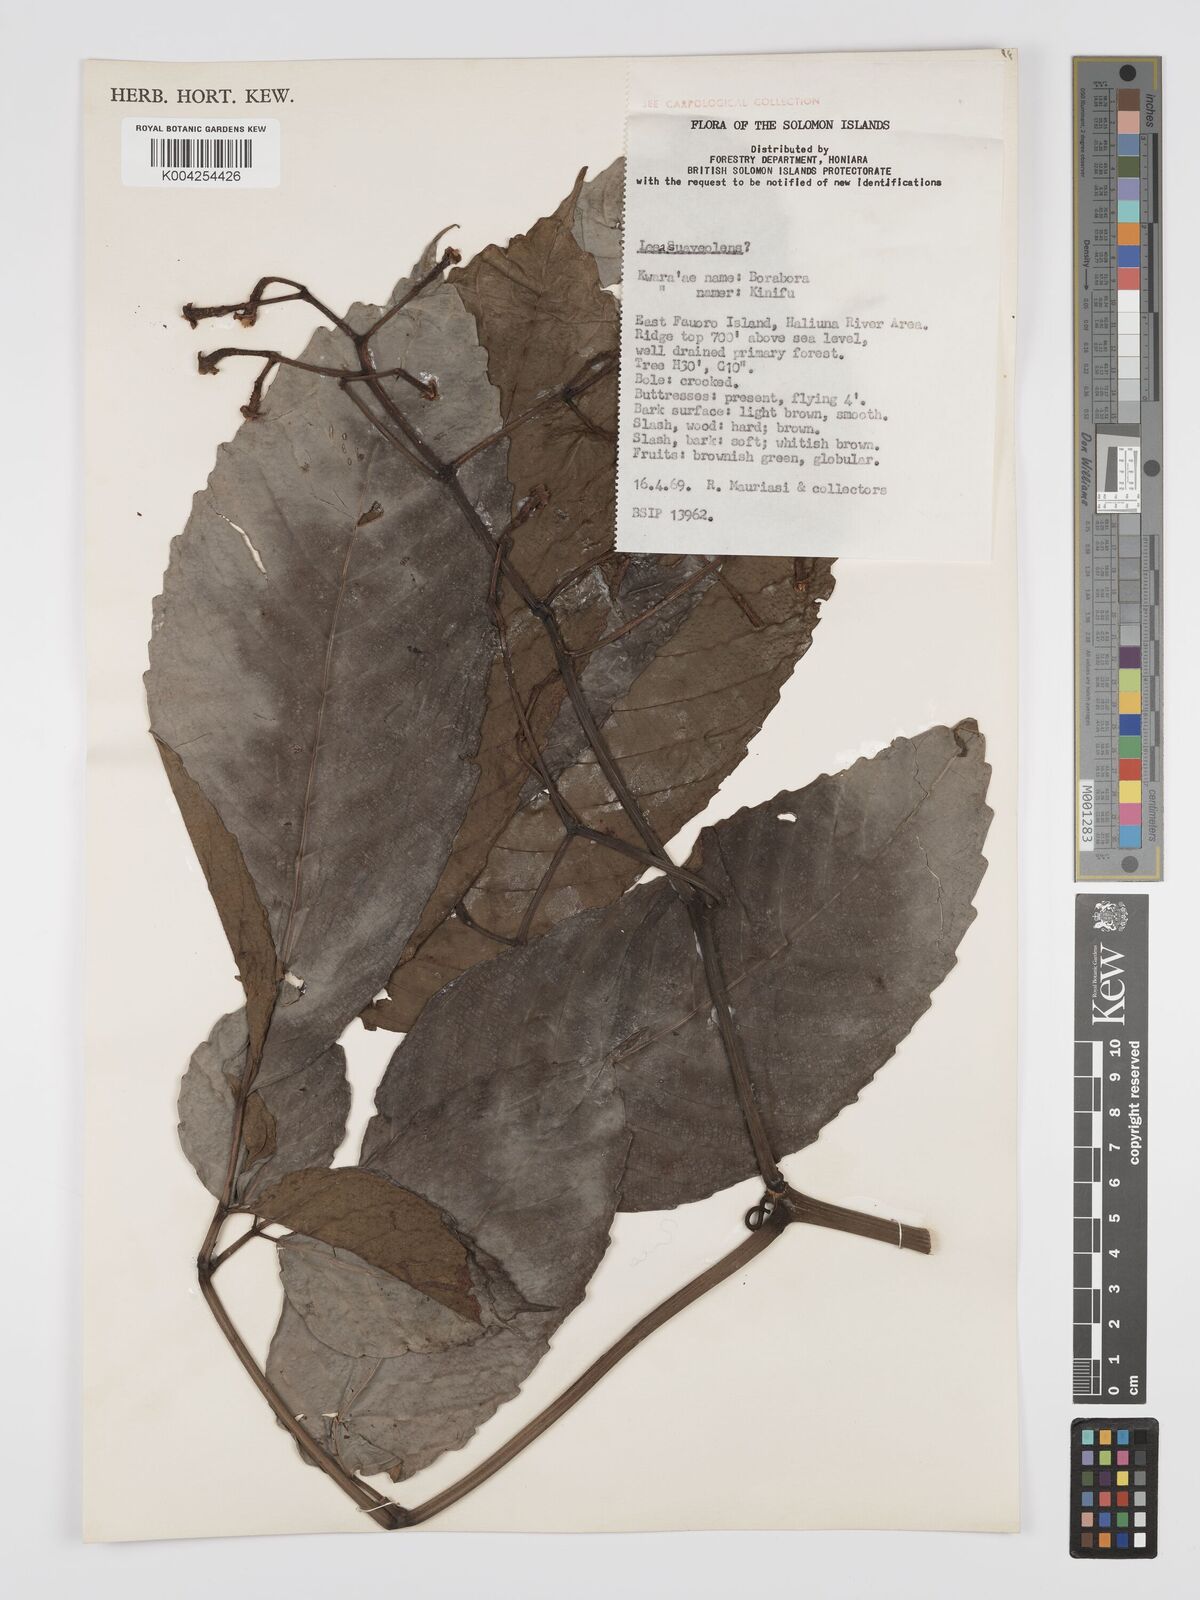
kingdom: Plantae
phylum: Tracheophyta
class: Magnoliopsida
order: Vitales
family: Vitaceae
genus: Leea
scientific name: Leea tetramera
